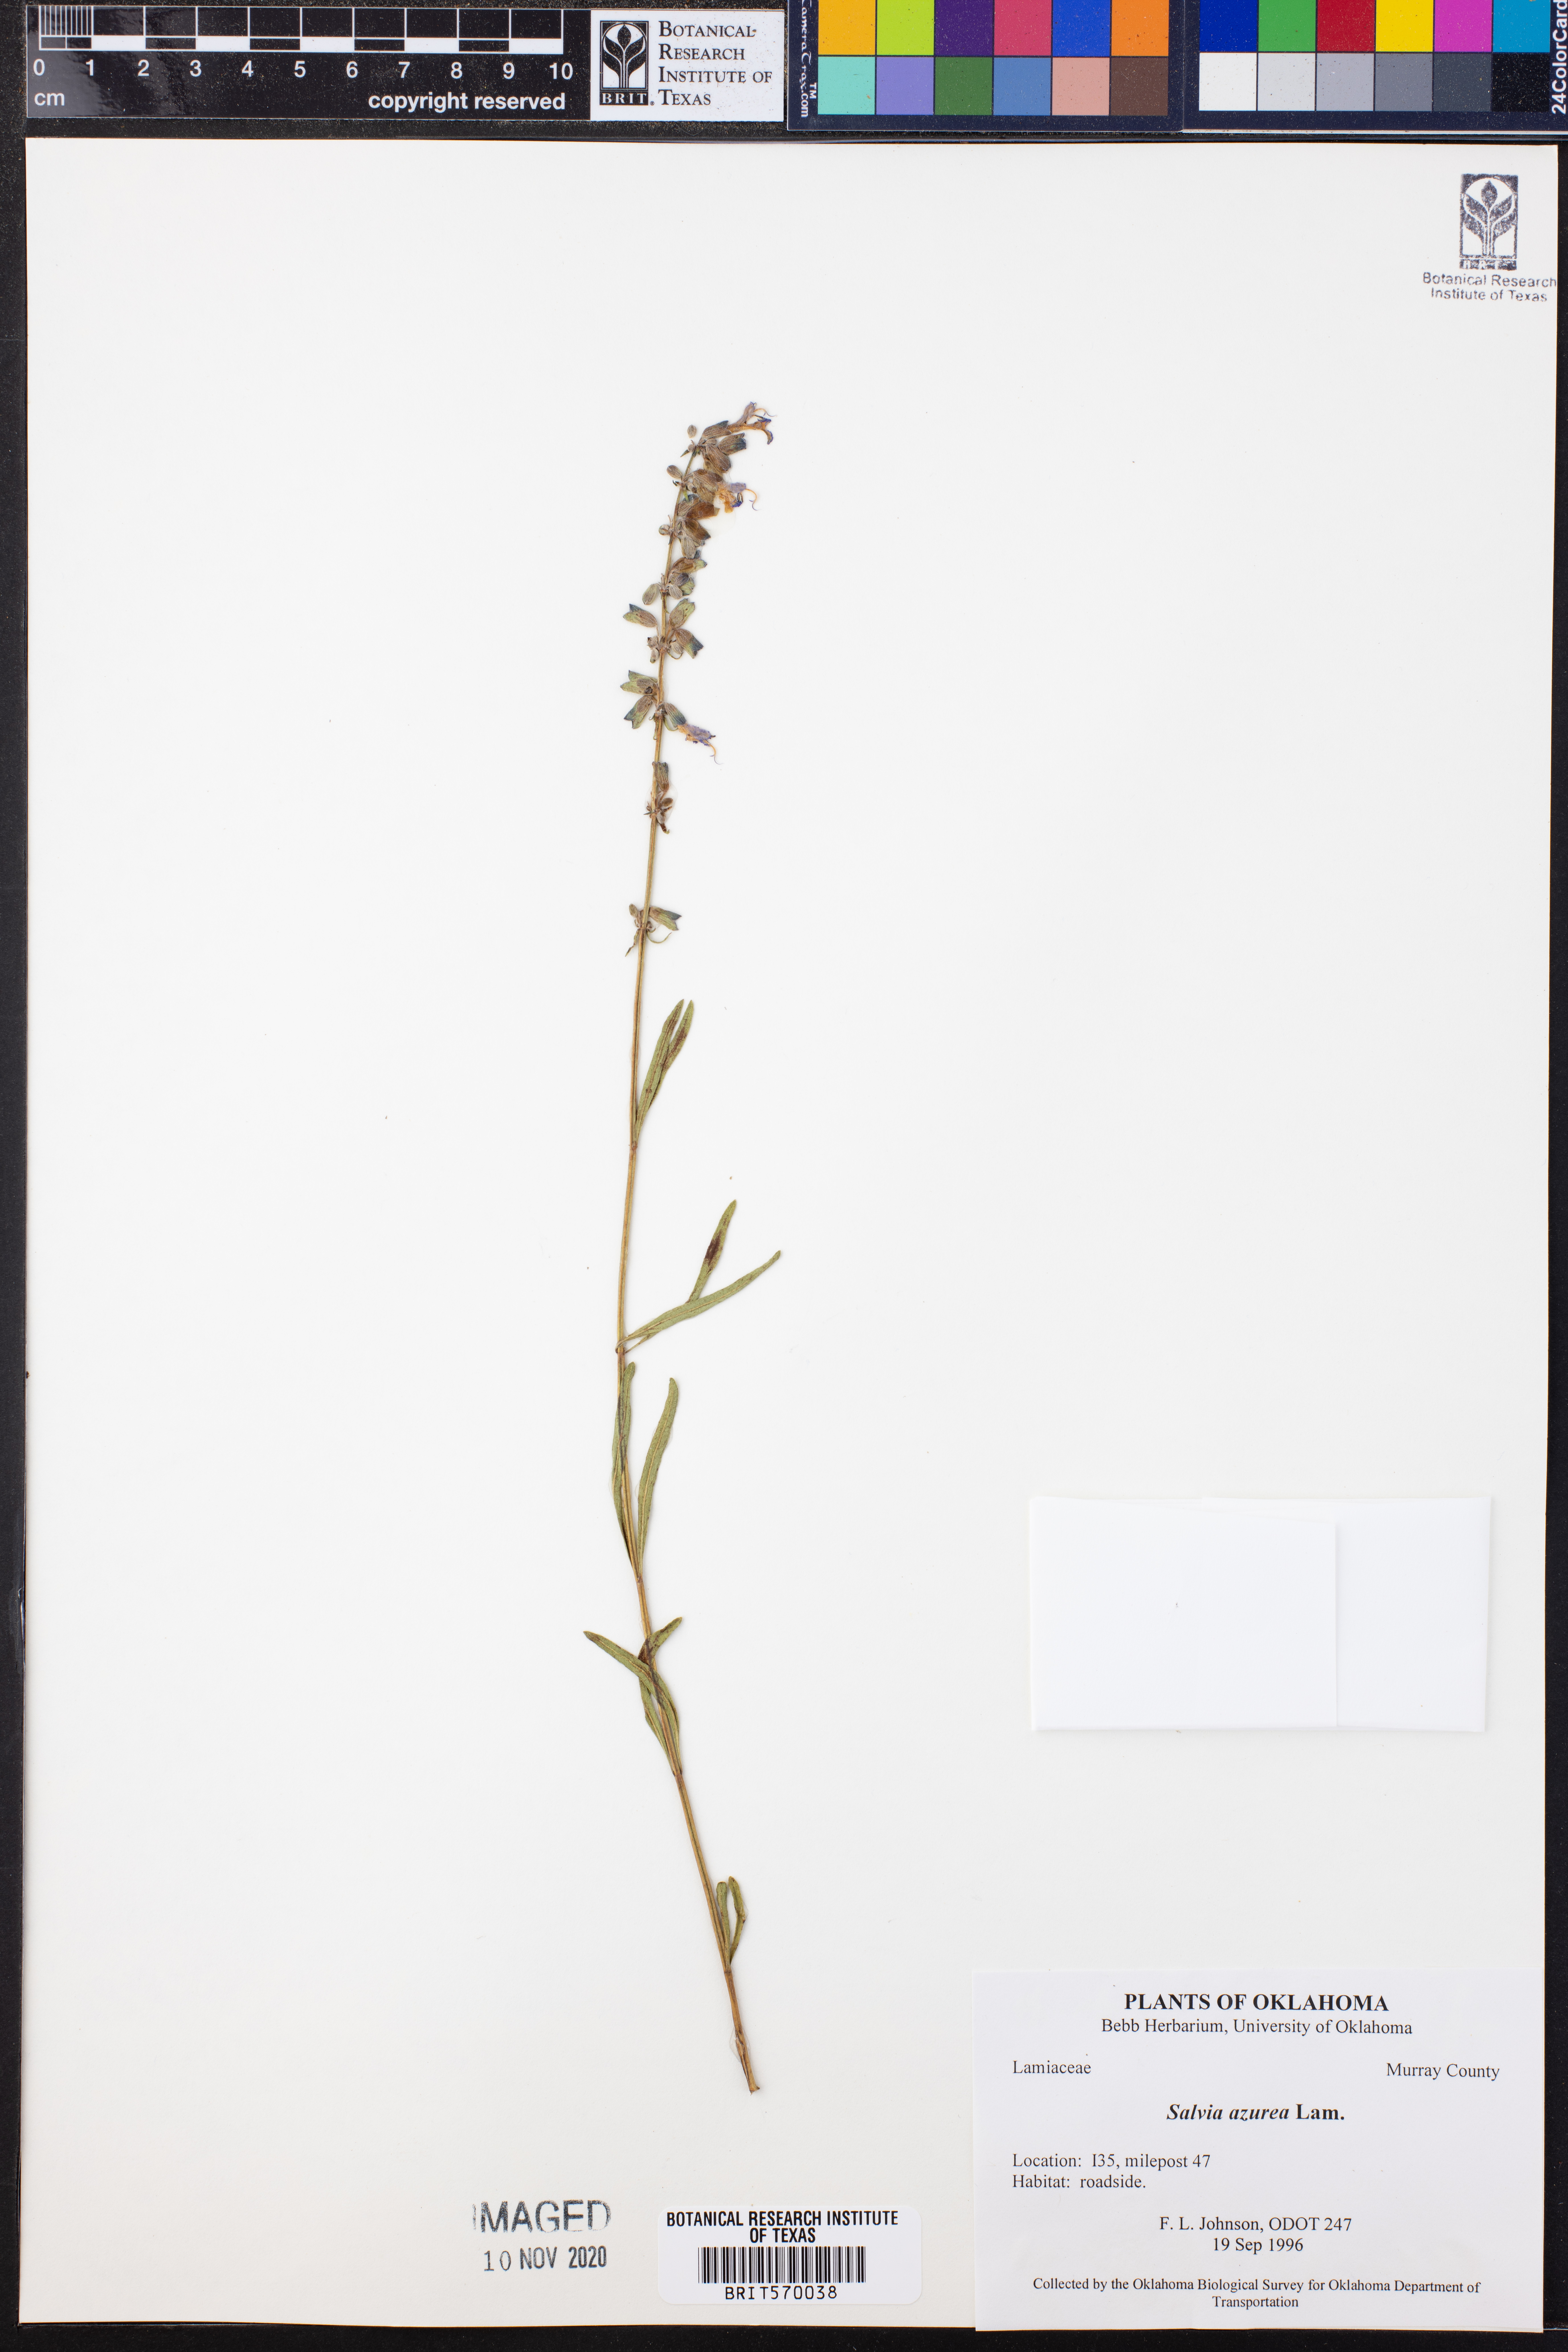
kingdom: Plantae
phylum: Tracheophyta
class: Magnoliopsida
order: Lamiales
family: Lamiaceae
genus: Salvia
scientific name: Salvia azurea
